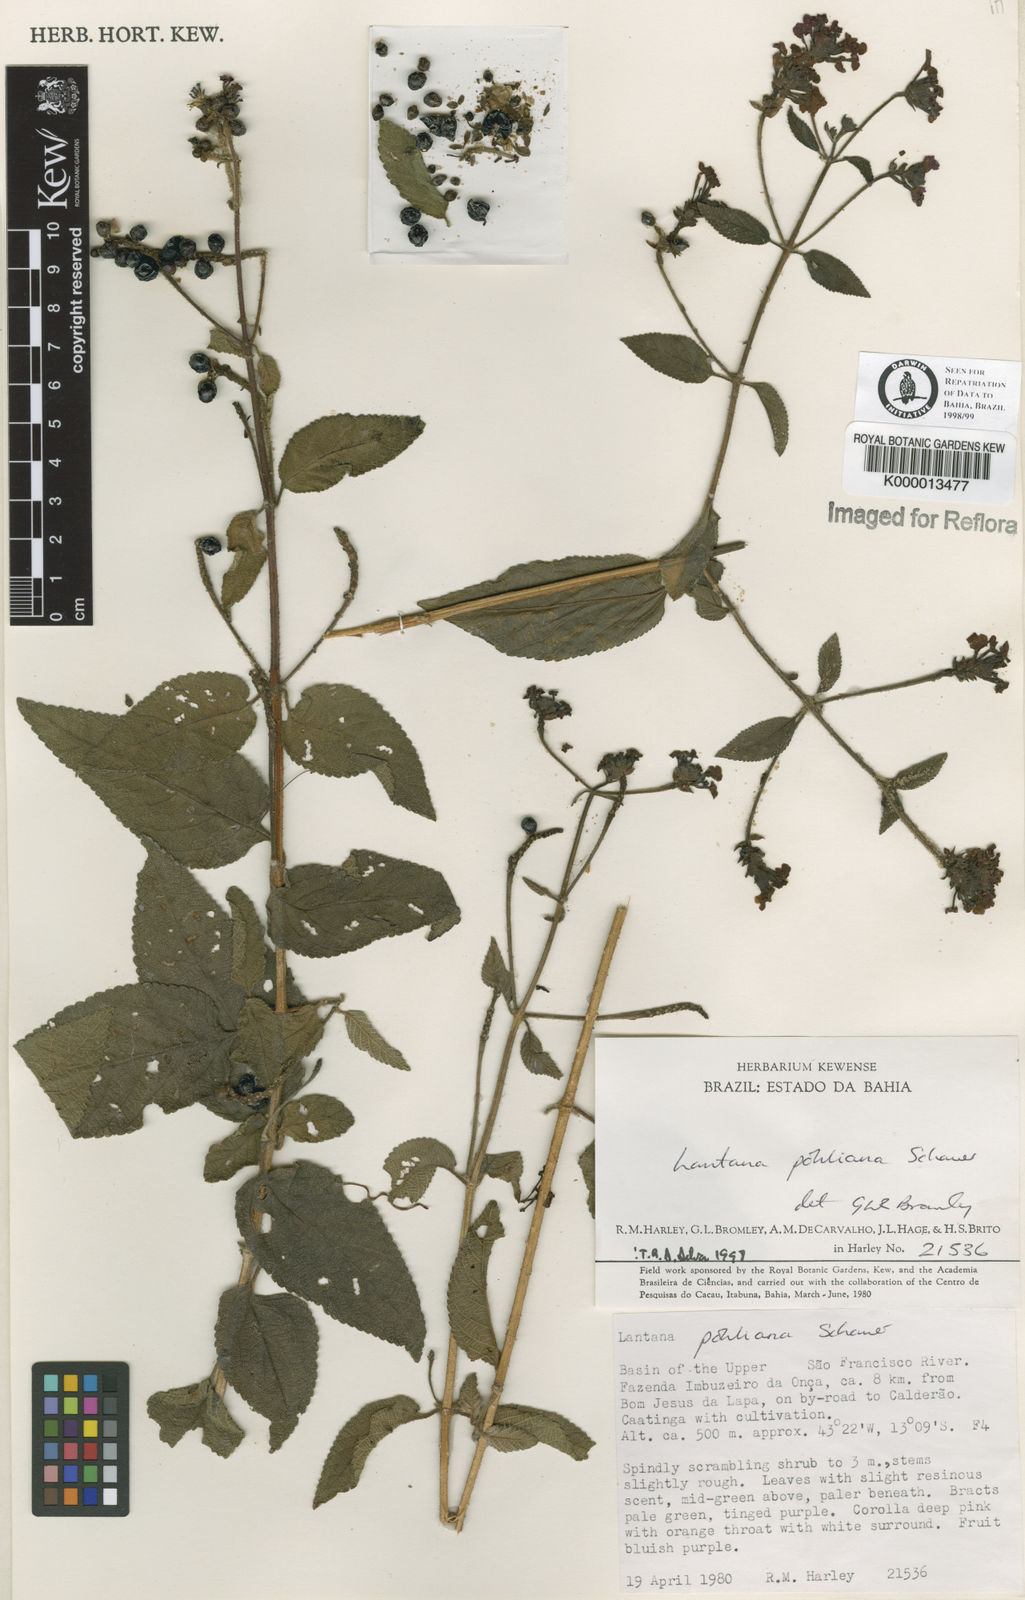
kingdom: Plantae
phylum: Tracheophyta
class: Magnoliopsida
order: Lamiales
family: Verbenaceae
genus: Lantana
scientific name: Lantana pohliana
